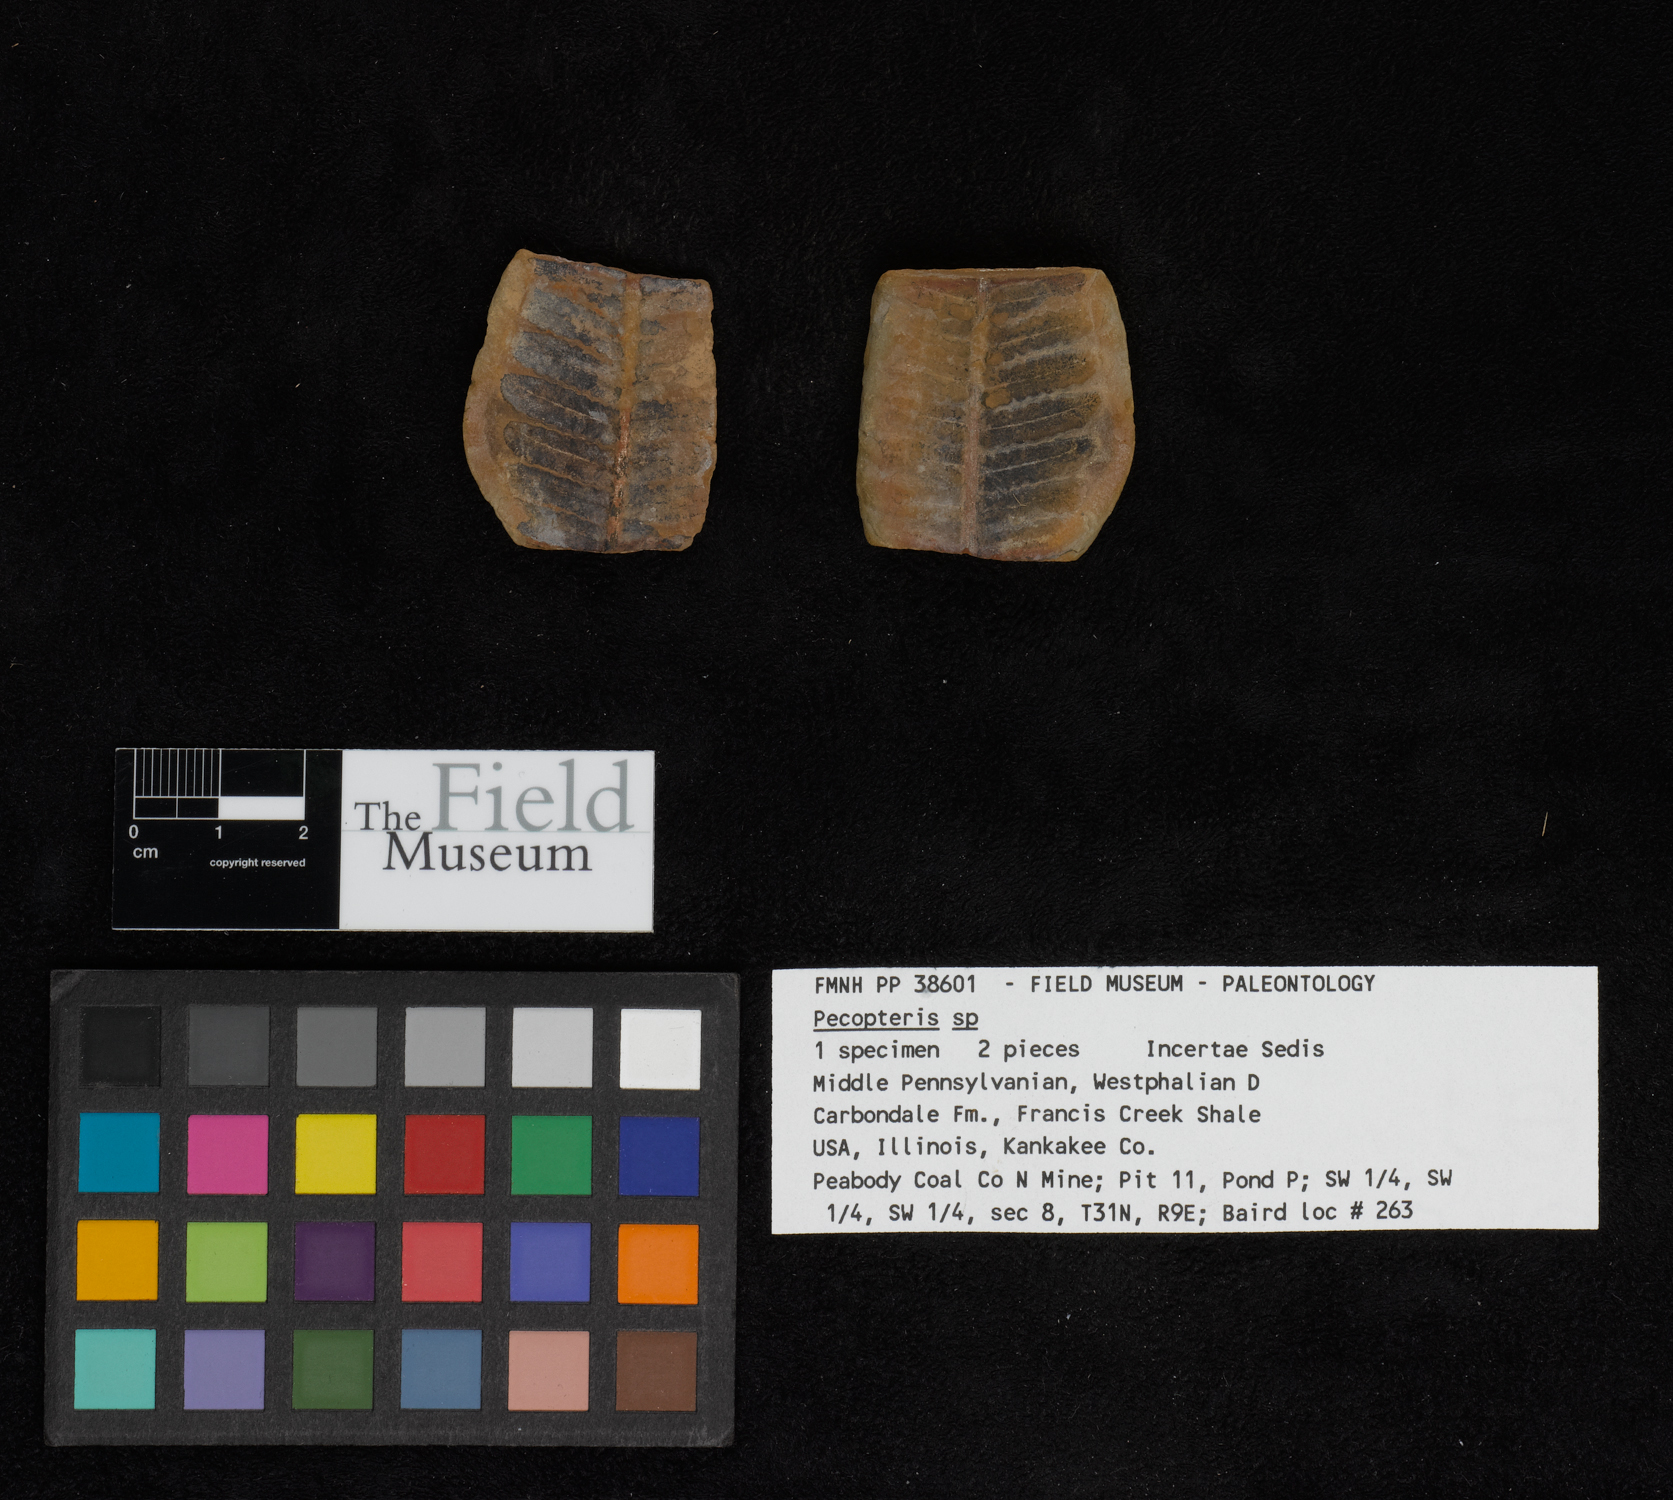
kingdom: Plantae
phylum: Tracheophyta
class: Polypodiopsida
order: Marattiales
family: Asterothecaceae
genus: Pecopteris
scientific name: Pecopteris
